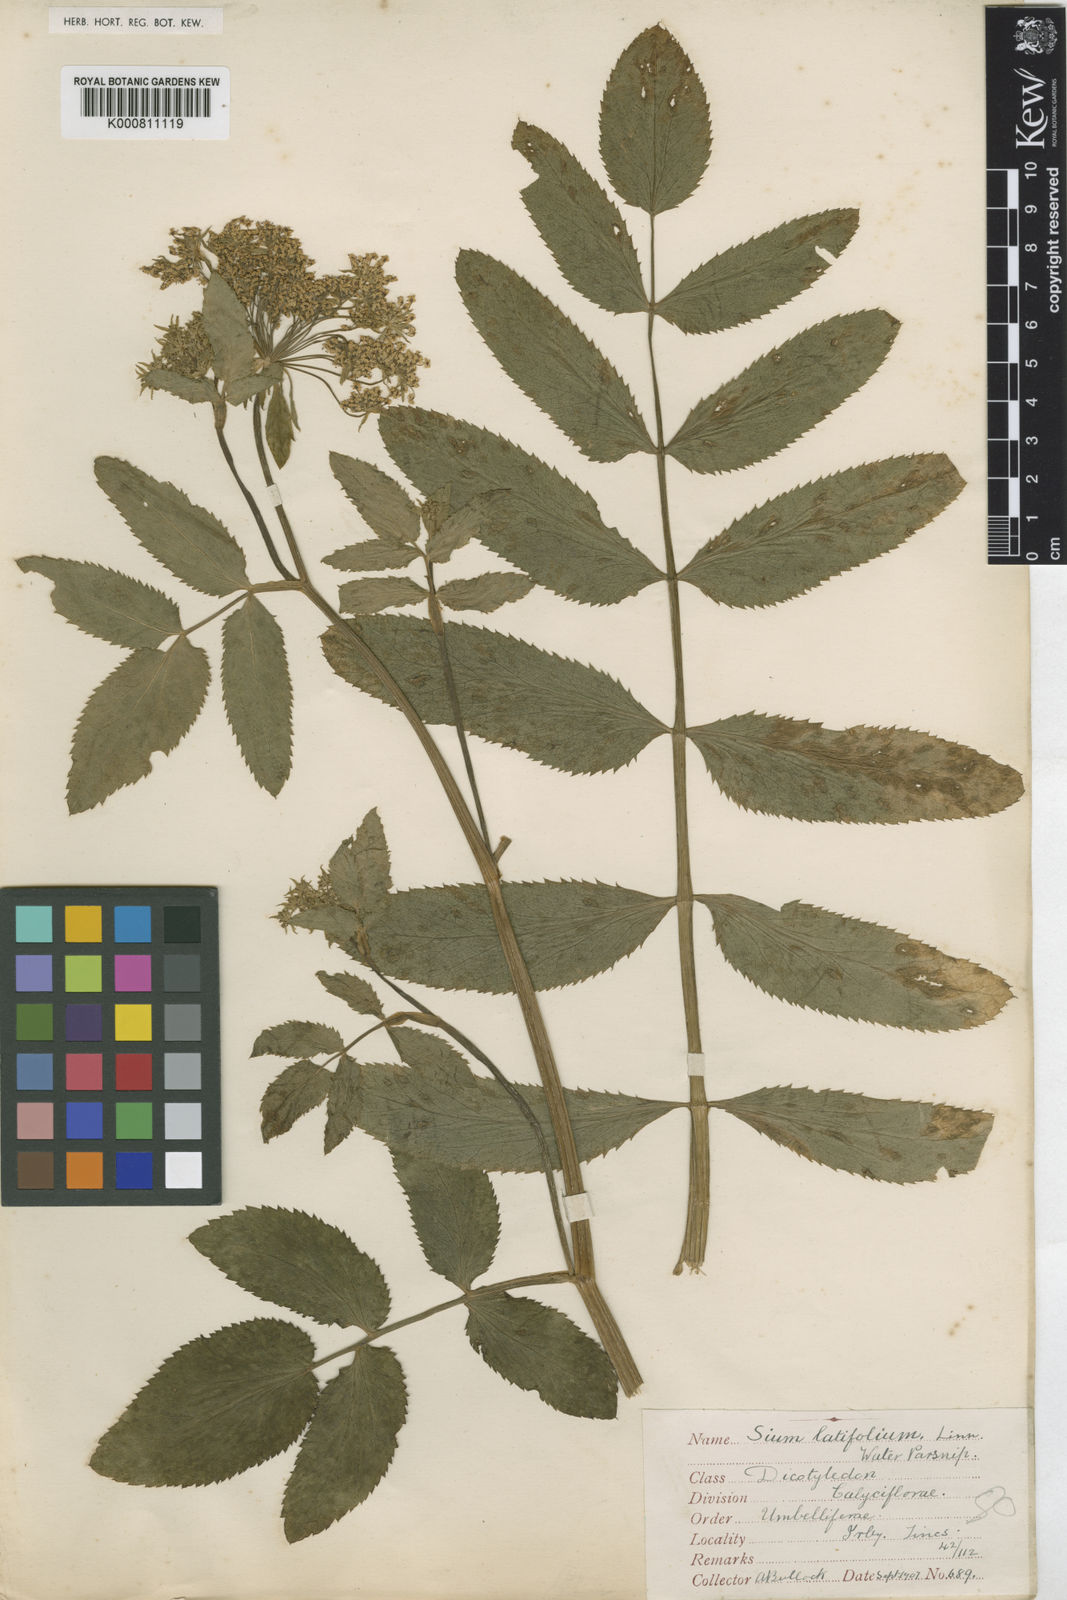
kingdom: Plantae
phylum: Tracheophyta
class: Magnoliopsida
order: Apiales
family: Apiaceae
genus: Sium
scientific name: Sium latifolium
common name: Greater water-parsnip
